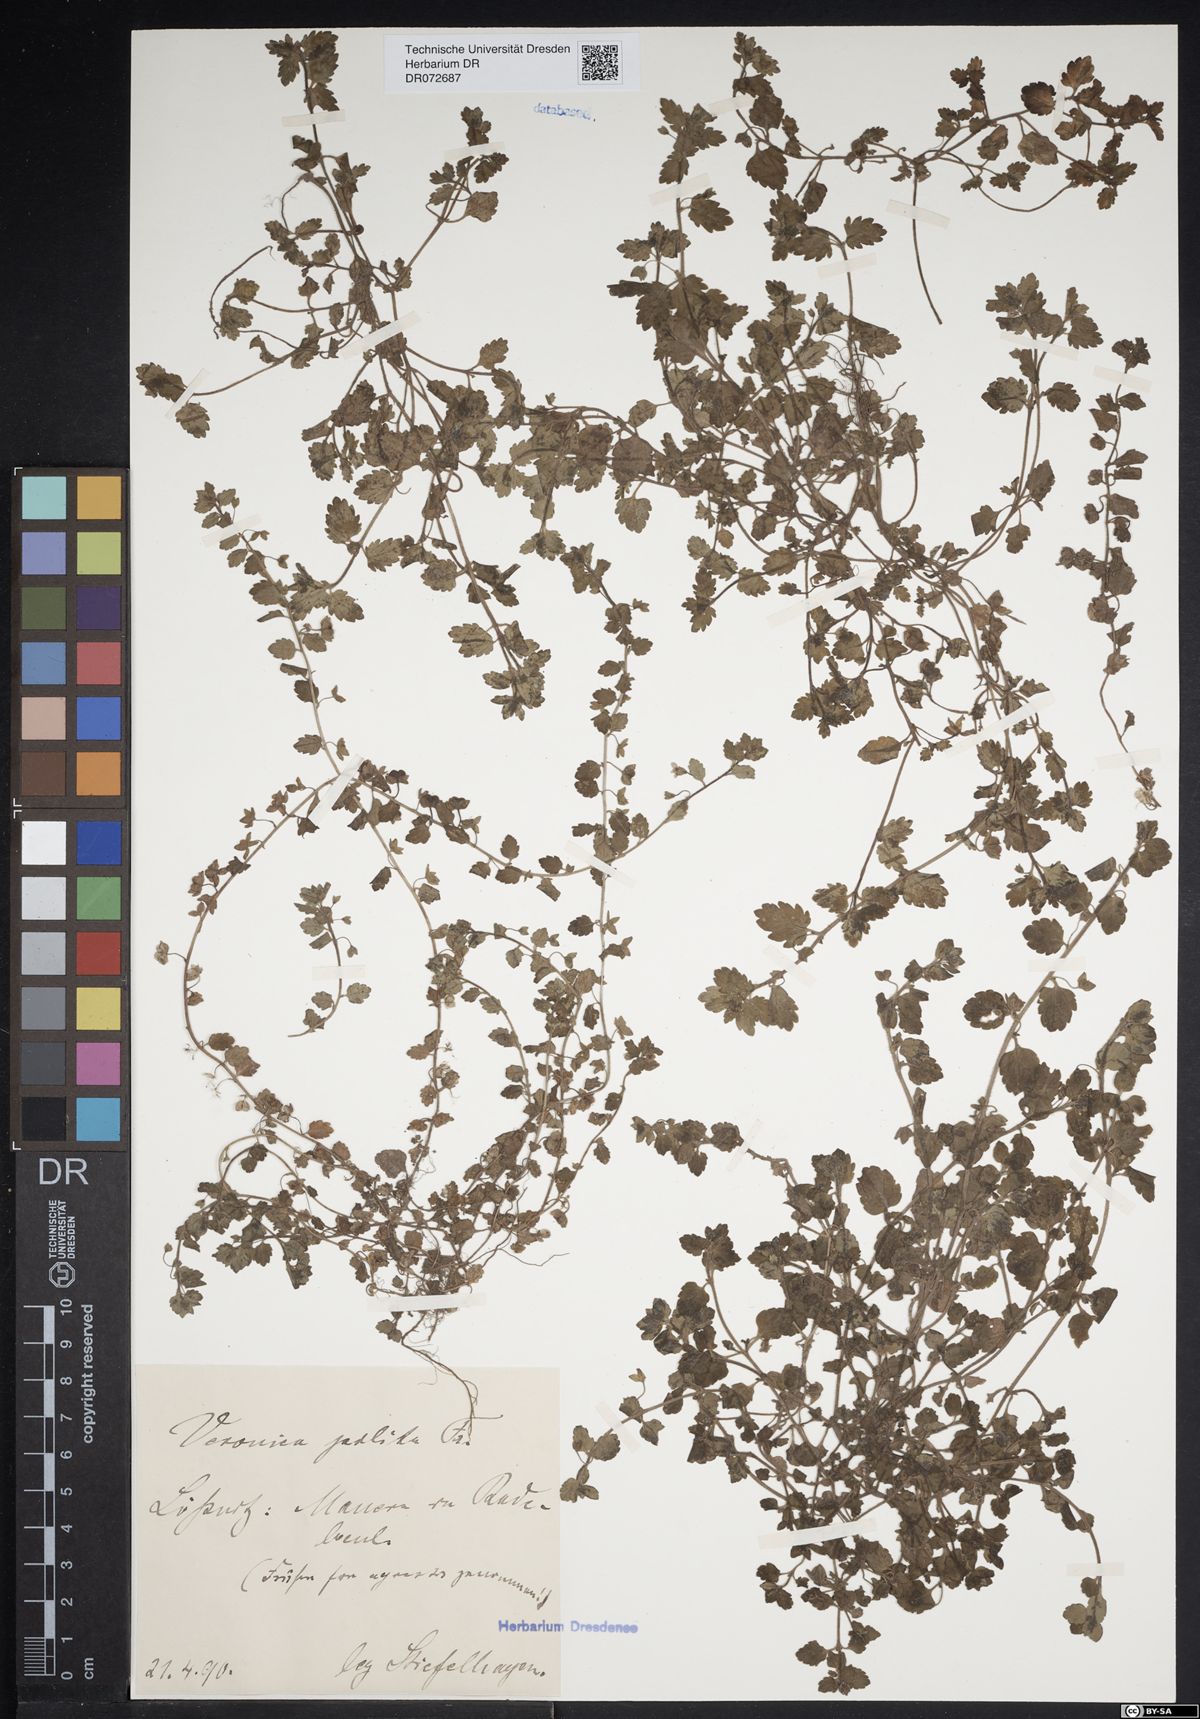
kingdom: Plantae
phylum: Tracheophyta
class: Magnoliopsida
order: Lamiales
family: Plantaginaceae
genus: Veronica
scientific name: Veronica polita
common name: Grey field-speedwell
